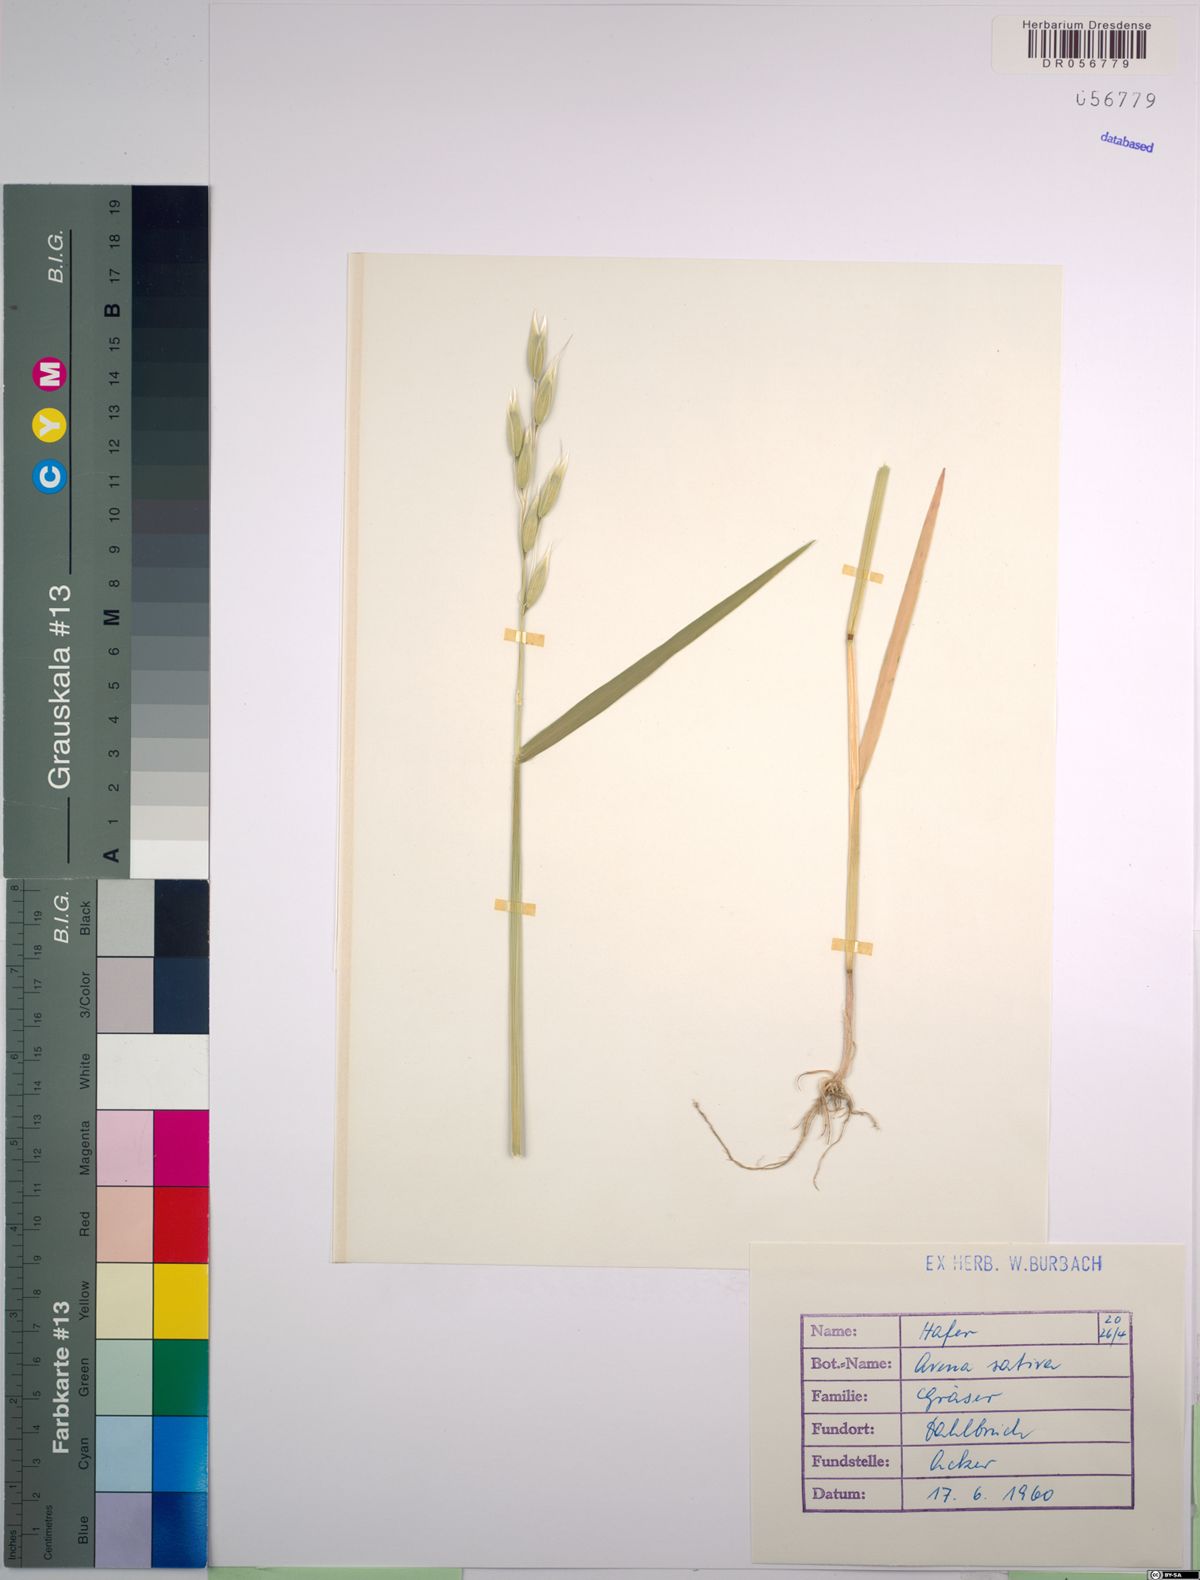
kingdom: Plantae
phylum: Tracheophyta
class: Liliopsida
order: Poales
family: Poaceae
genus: Avena
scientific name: Avena sativa
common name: Oat
